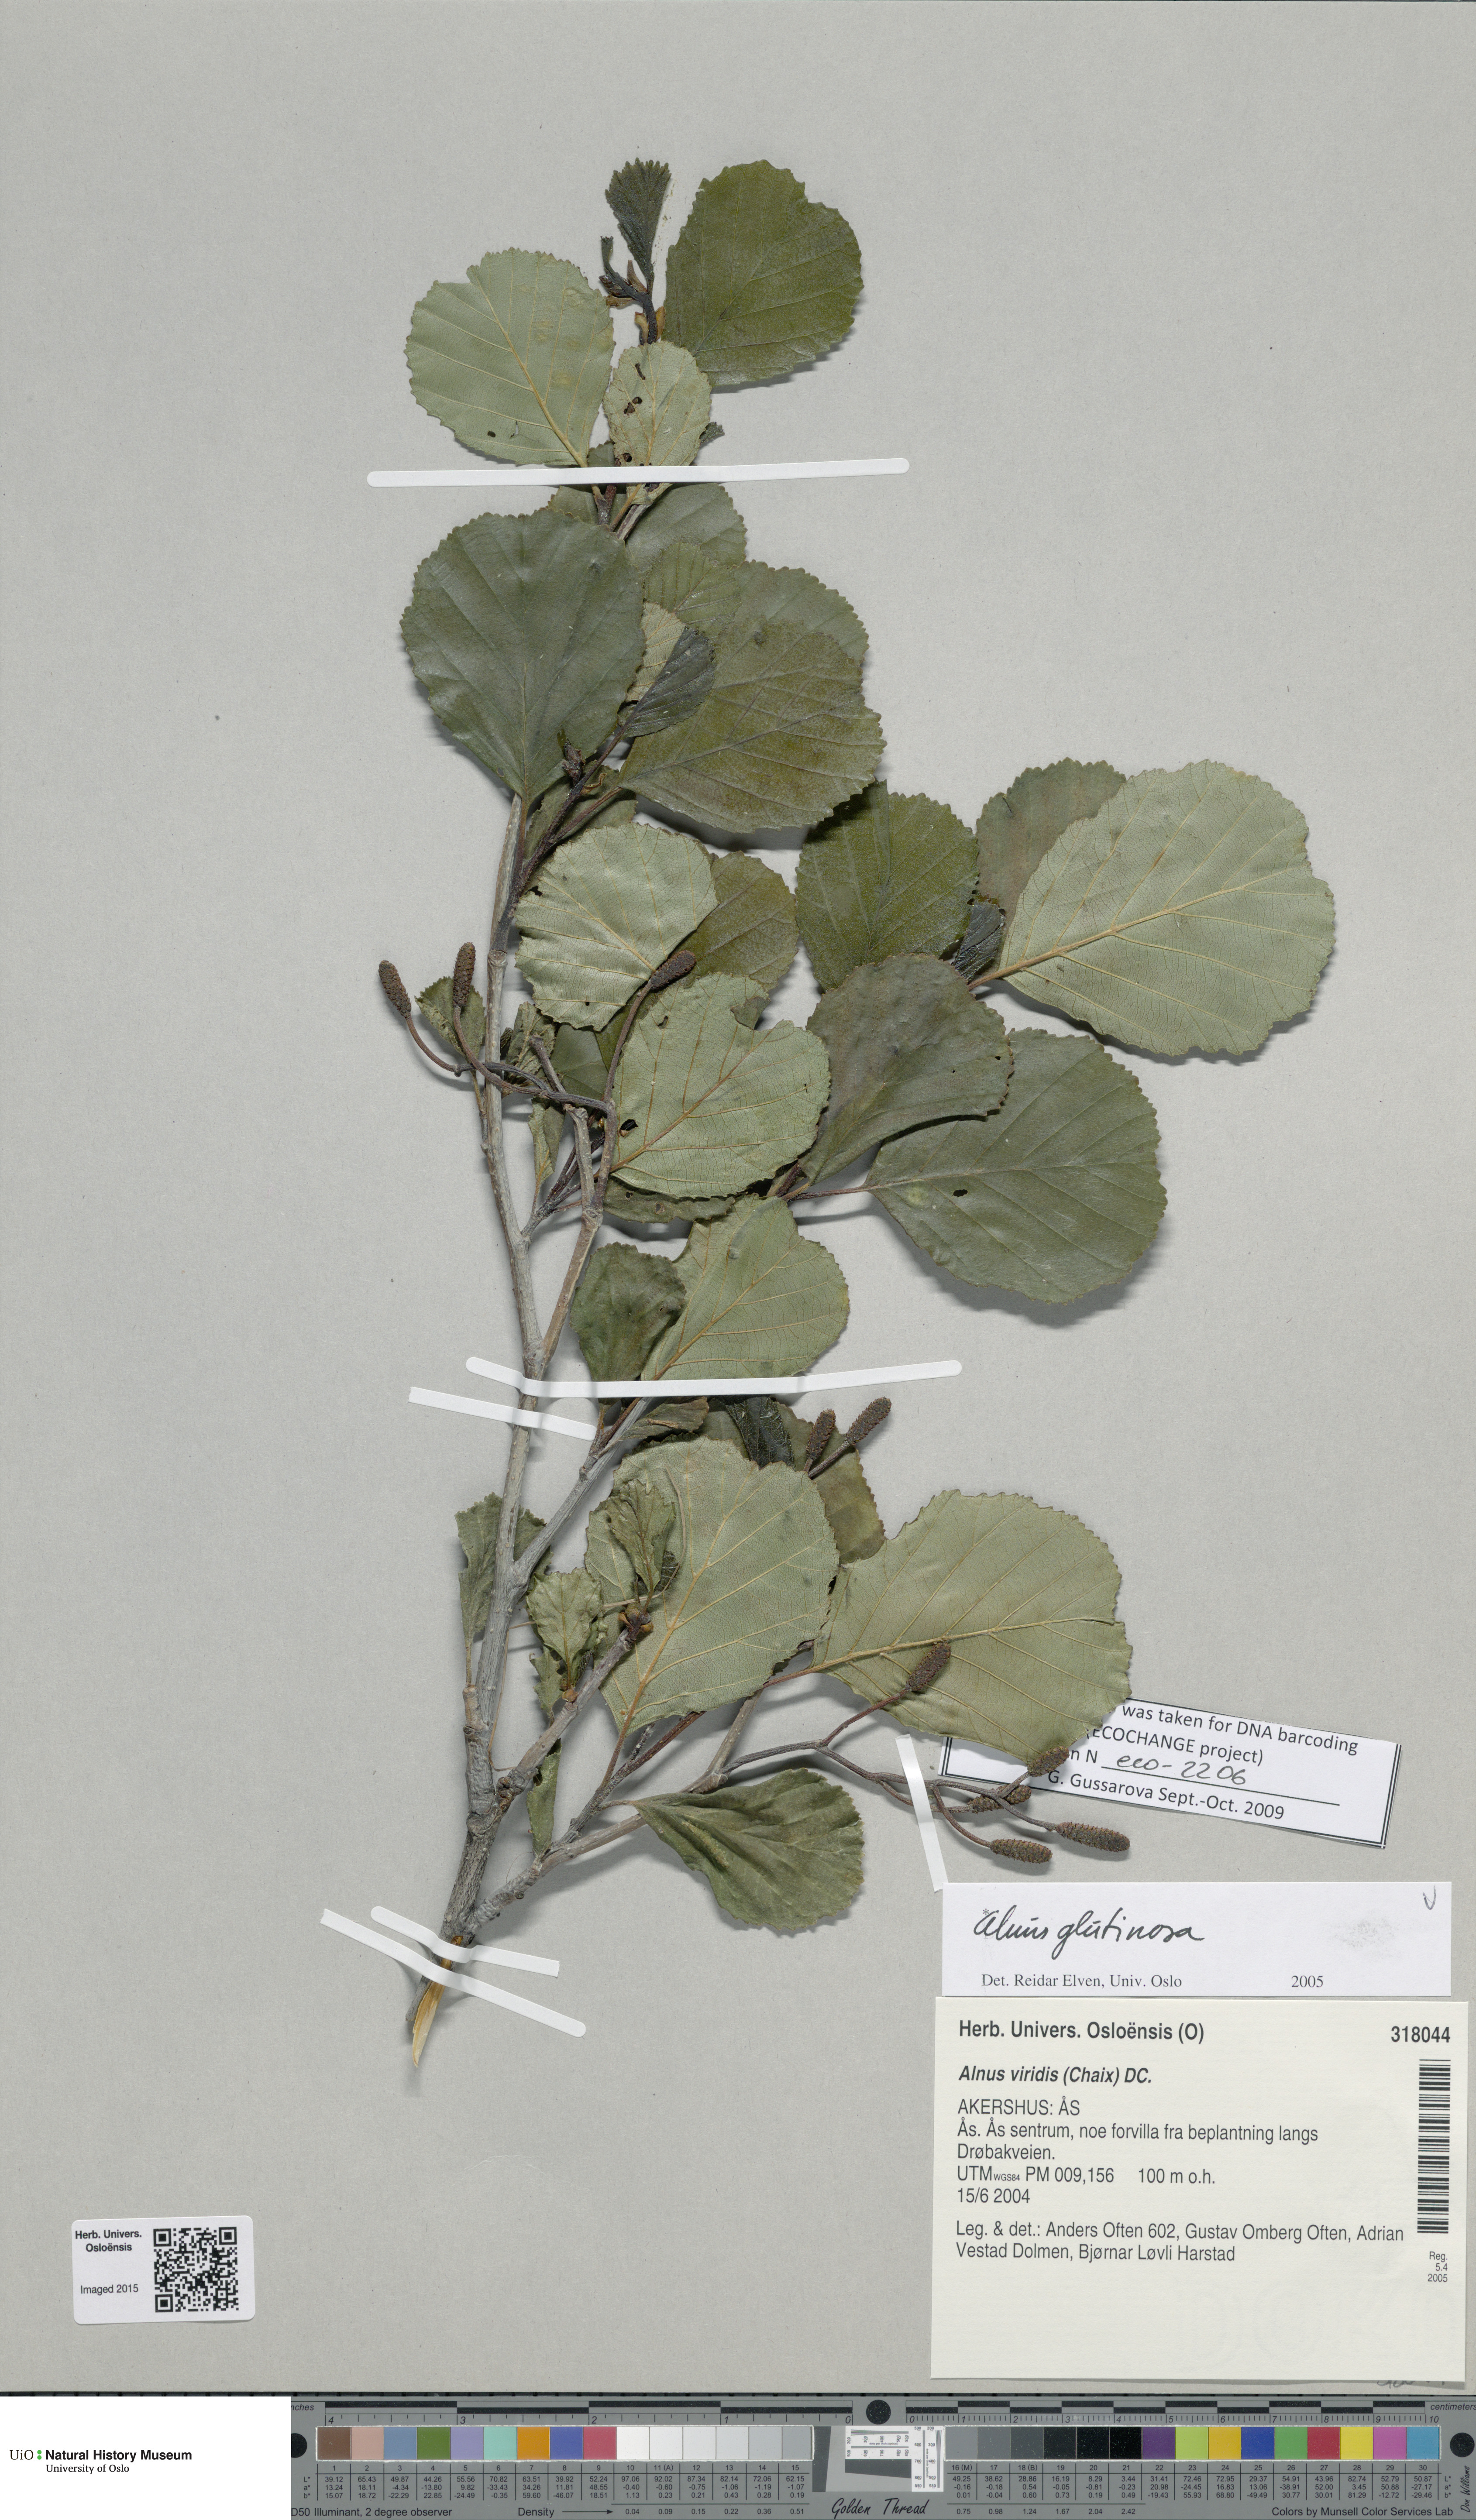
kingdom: Plantae
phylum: Tracheophyta
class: Magnoliopsida
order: Fagales
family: Betulaceae
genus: Alnus
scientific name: Alnus glutinosa
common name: Black alder
